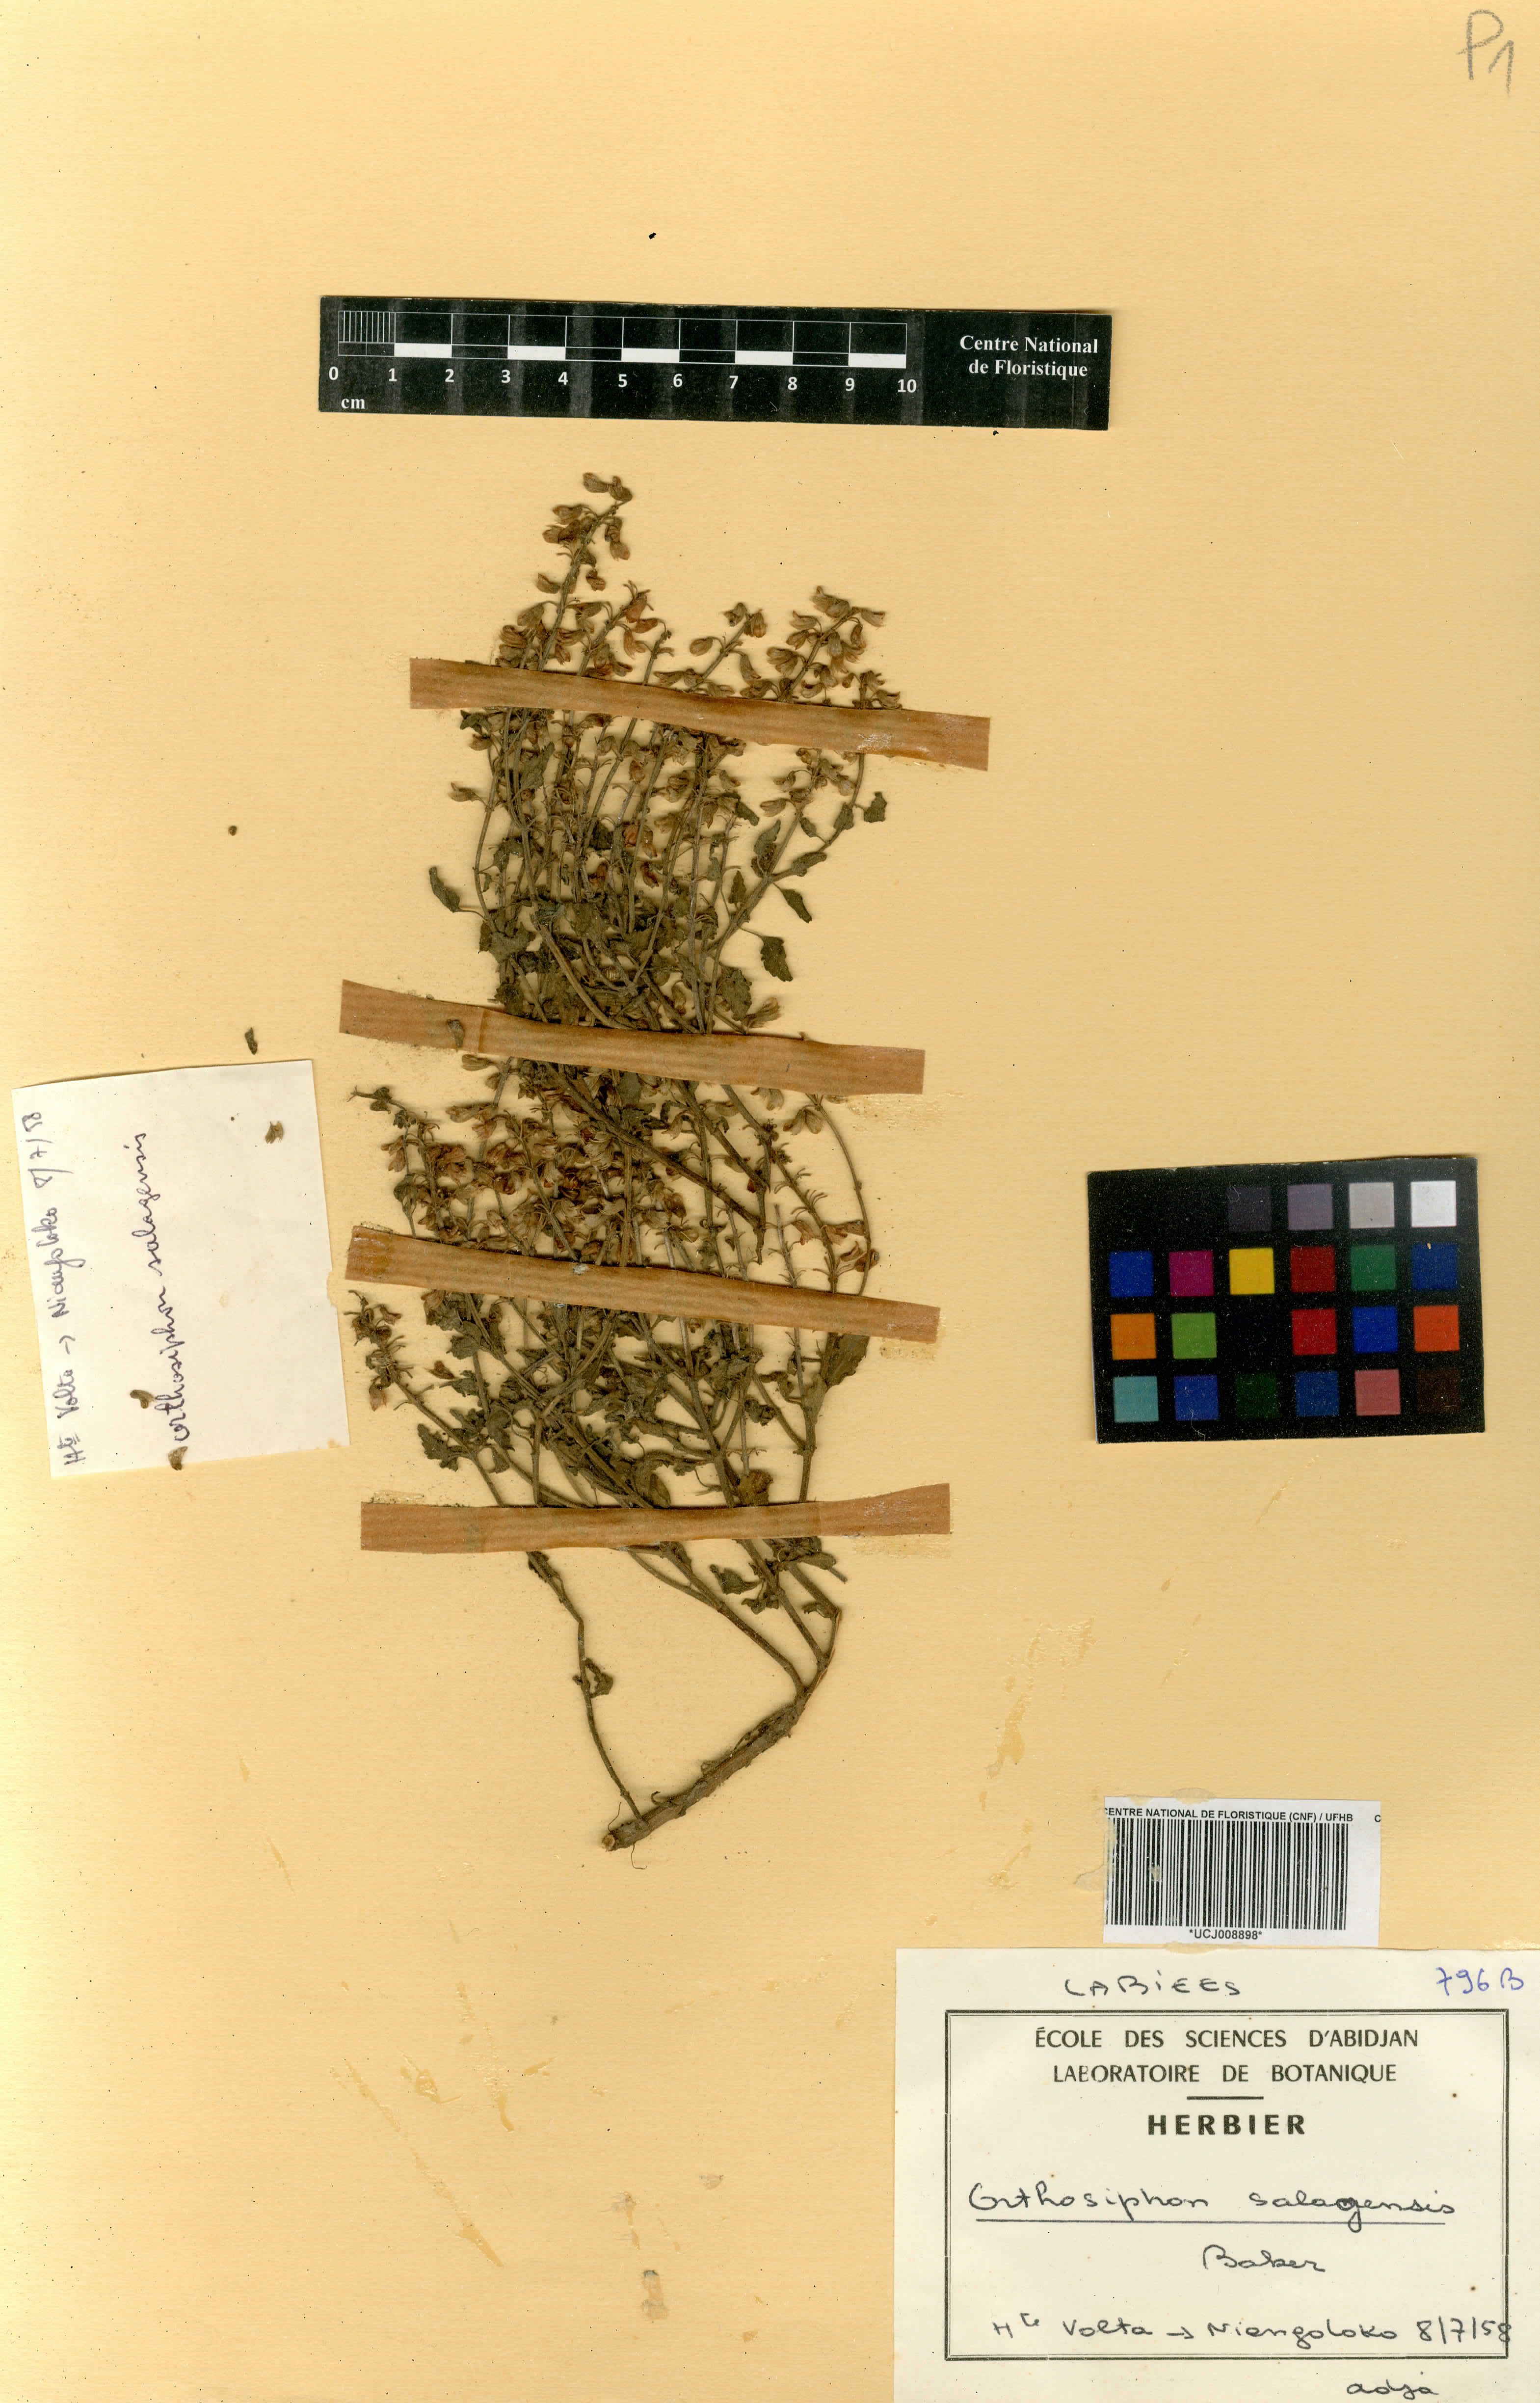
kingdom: Plantae
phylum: Tracheophyta
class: Magnoliopsida
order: Lamiales
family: Lamiaceae
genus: Orthosiphon
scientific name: Orthosiphon rubicundus
